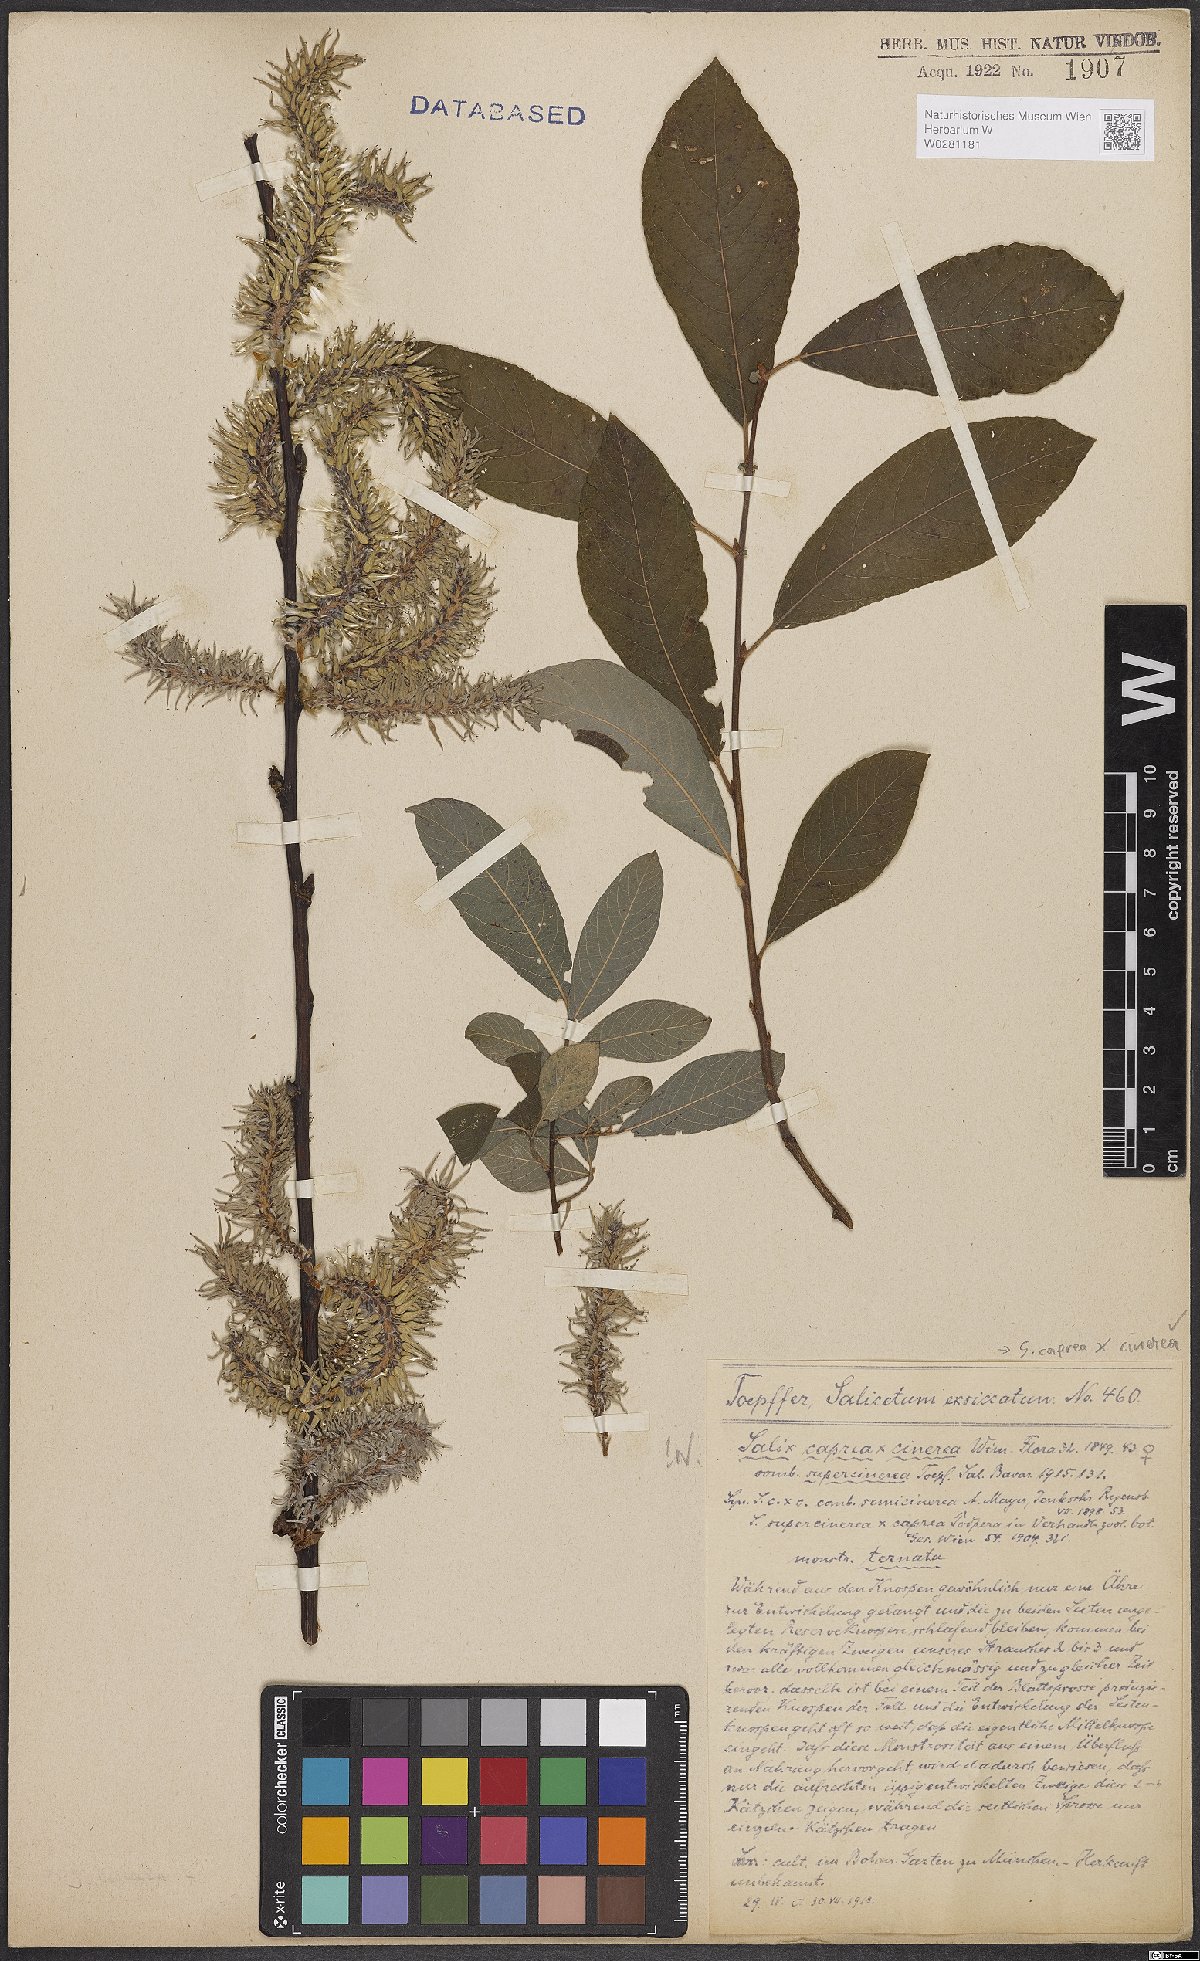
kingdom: Plantae
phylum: Tracheophyta
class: Magnoliopsida
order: Malpighiales
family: Salicaceae
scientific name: Salicaceae
